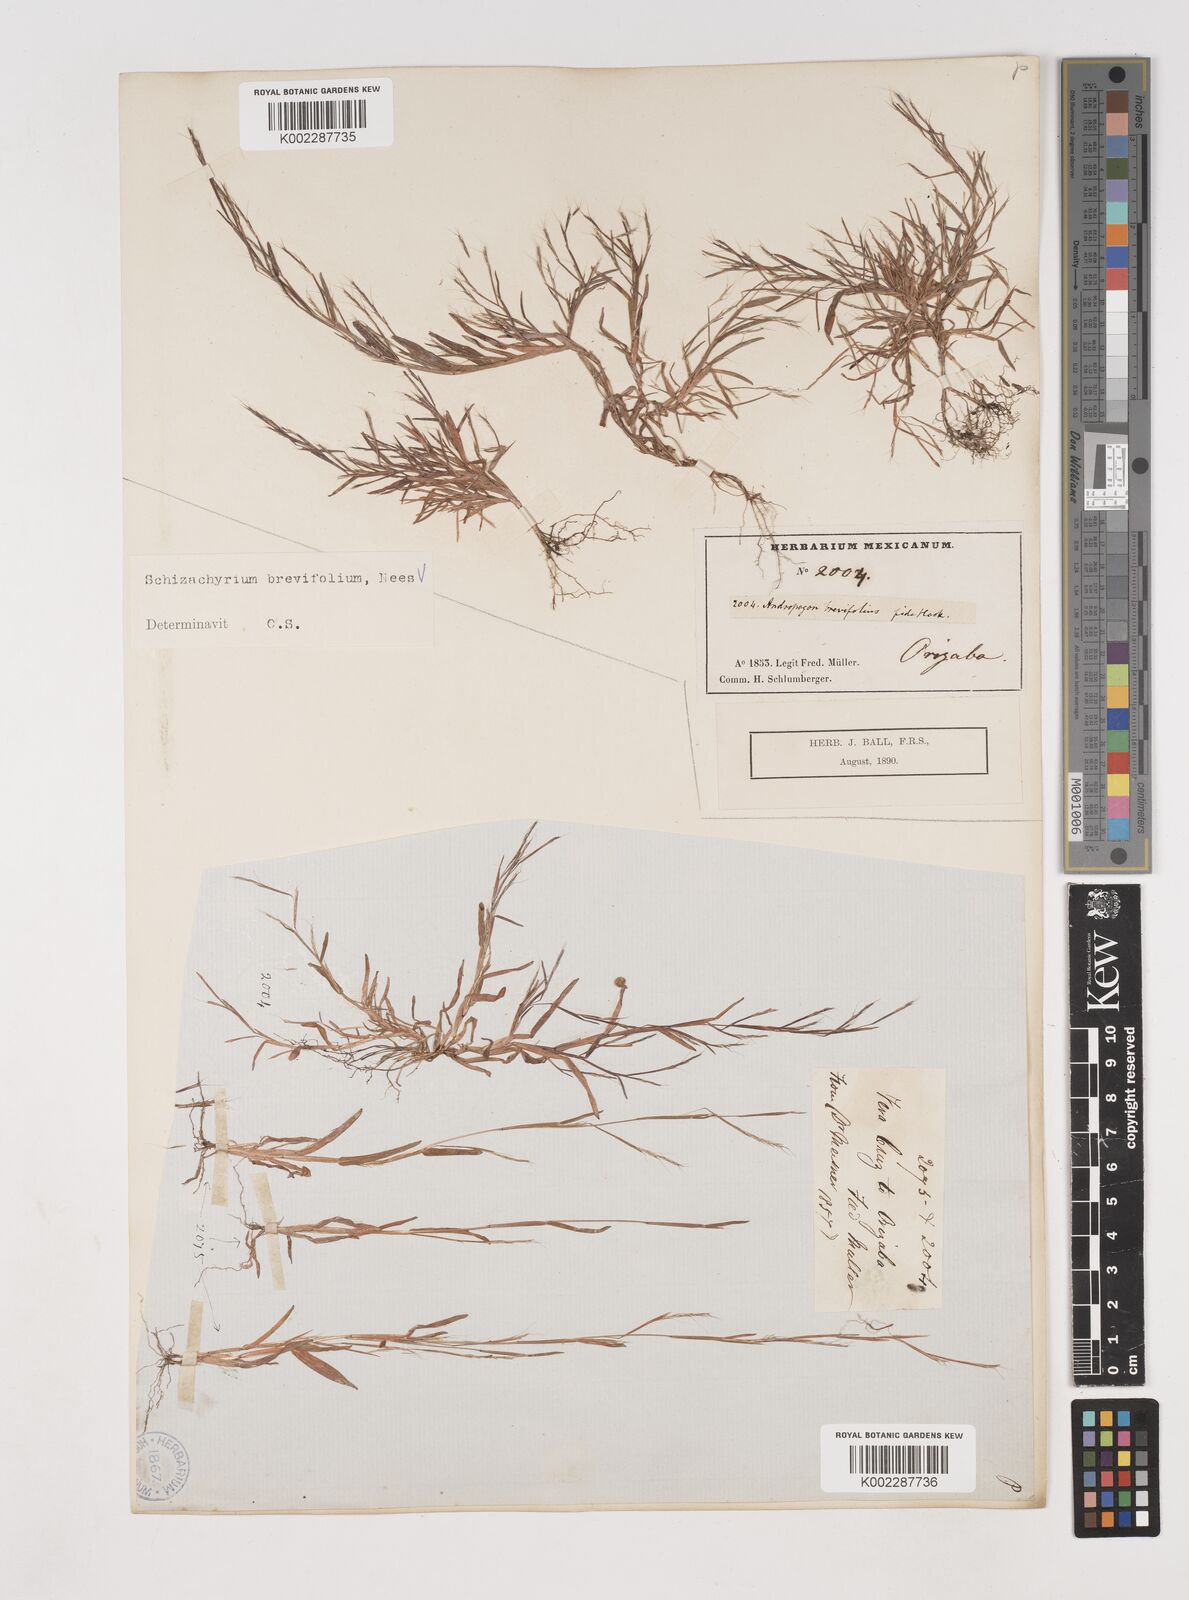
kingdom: Plantae
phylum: Tracheophyta
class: Liliopsida
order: Poales
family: Poaceae
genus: Schizachyrium
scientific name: Schizachyrium brevifolium
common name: Serillo dulce
